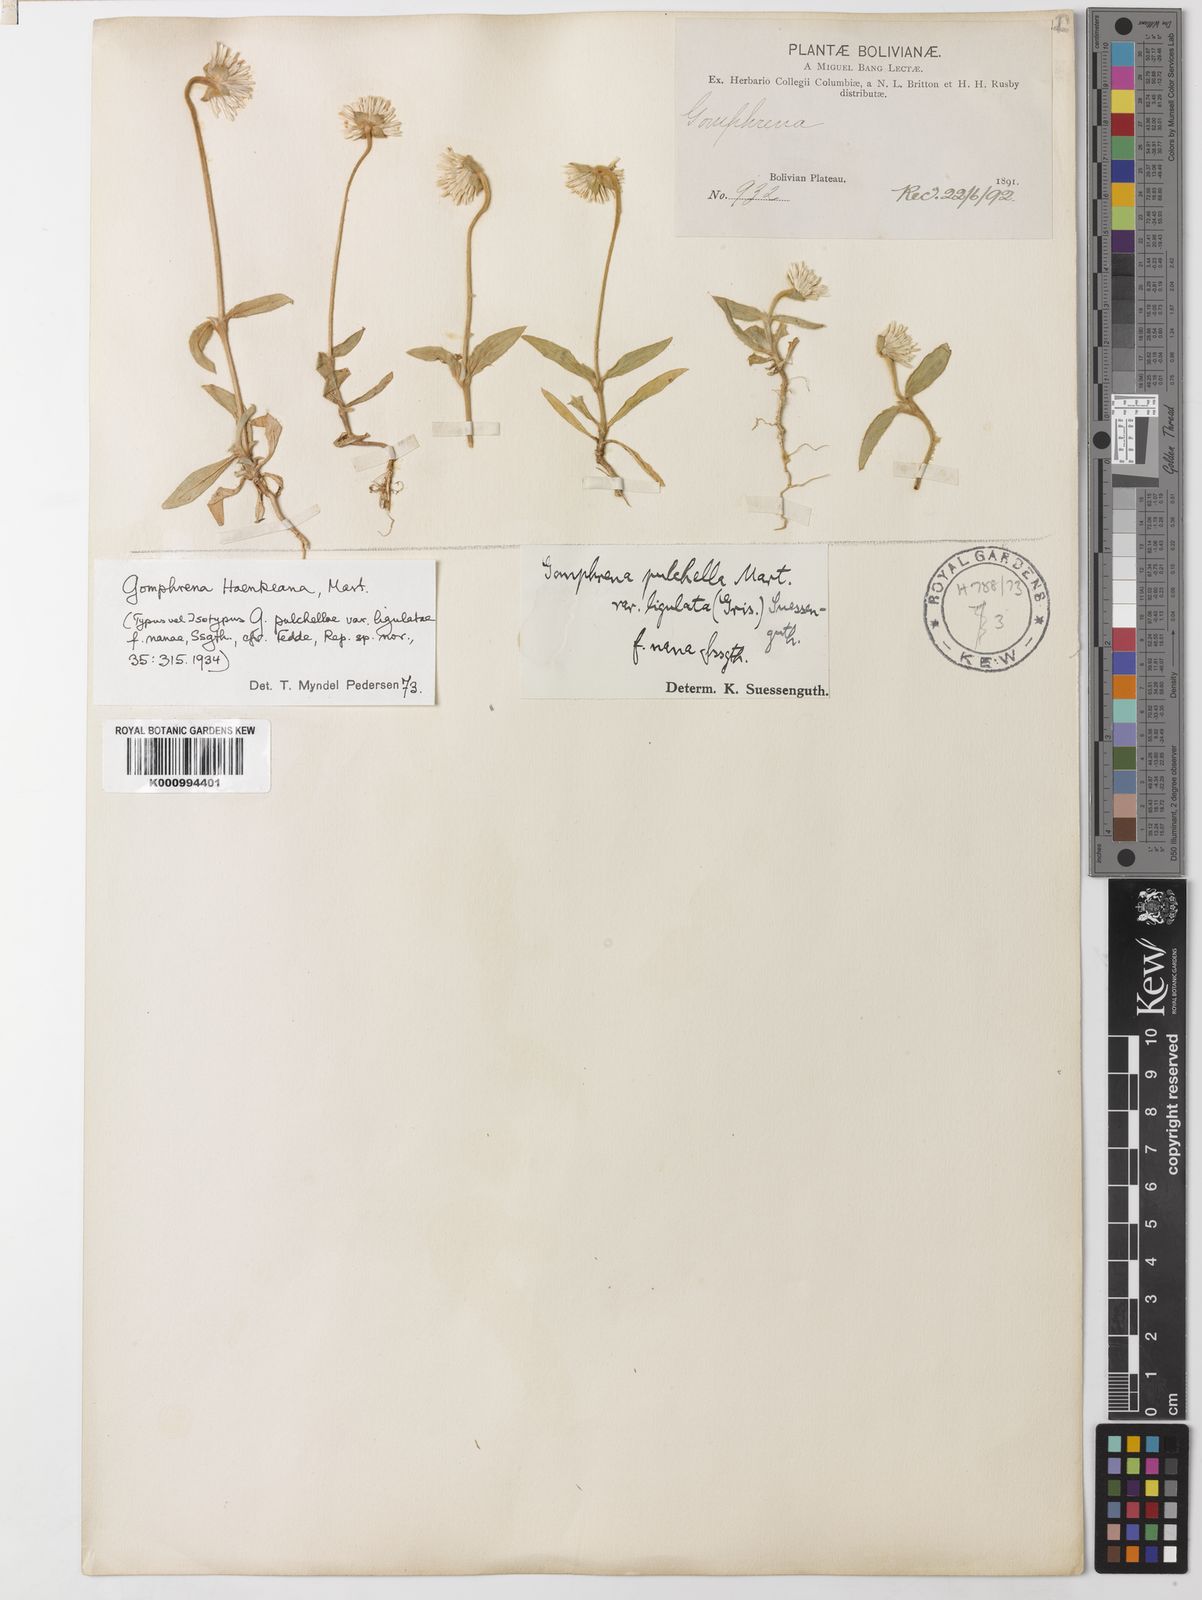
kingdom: Plantae
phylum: Tracheophyta
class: Magnoliopsida
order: Caryophyllales
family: Amaranthaceae
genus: Gomphrena
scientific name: Gomphrena haenkeana
